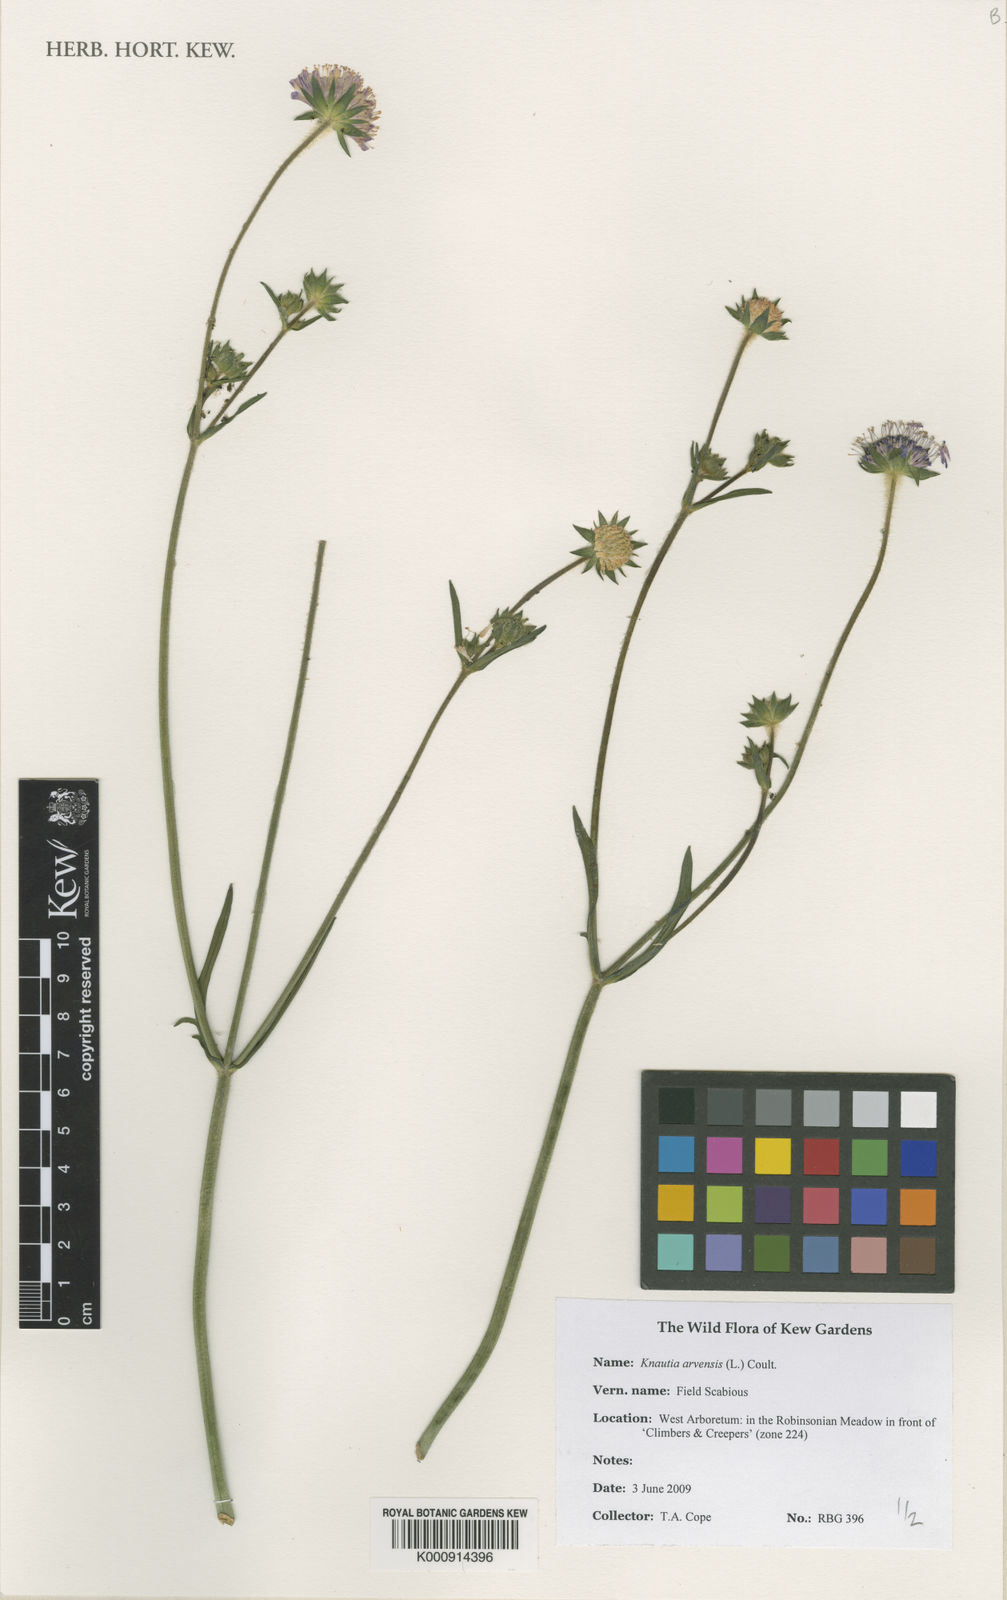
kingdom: Plantae
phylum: Tracheophyta
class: Magnoliopsida
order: Dipsacales
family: Caprifoliaceae
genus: Knautia
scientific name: Knautia arvensis
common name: Field scabiosa
